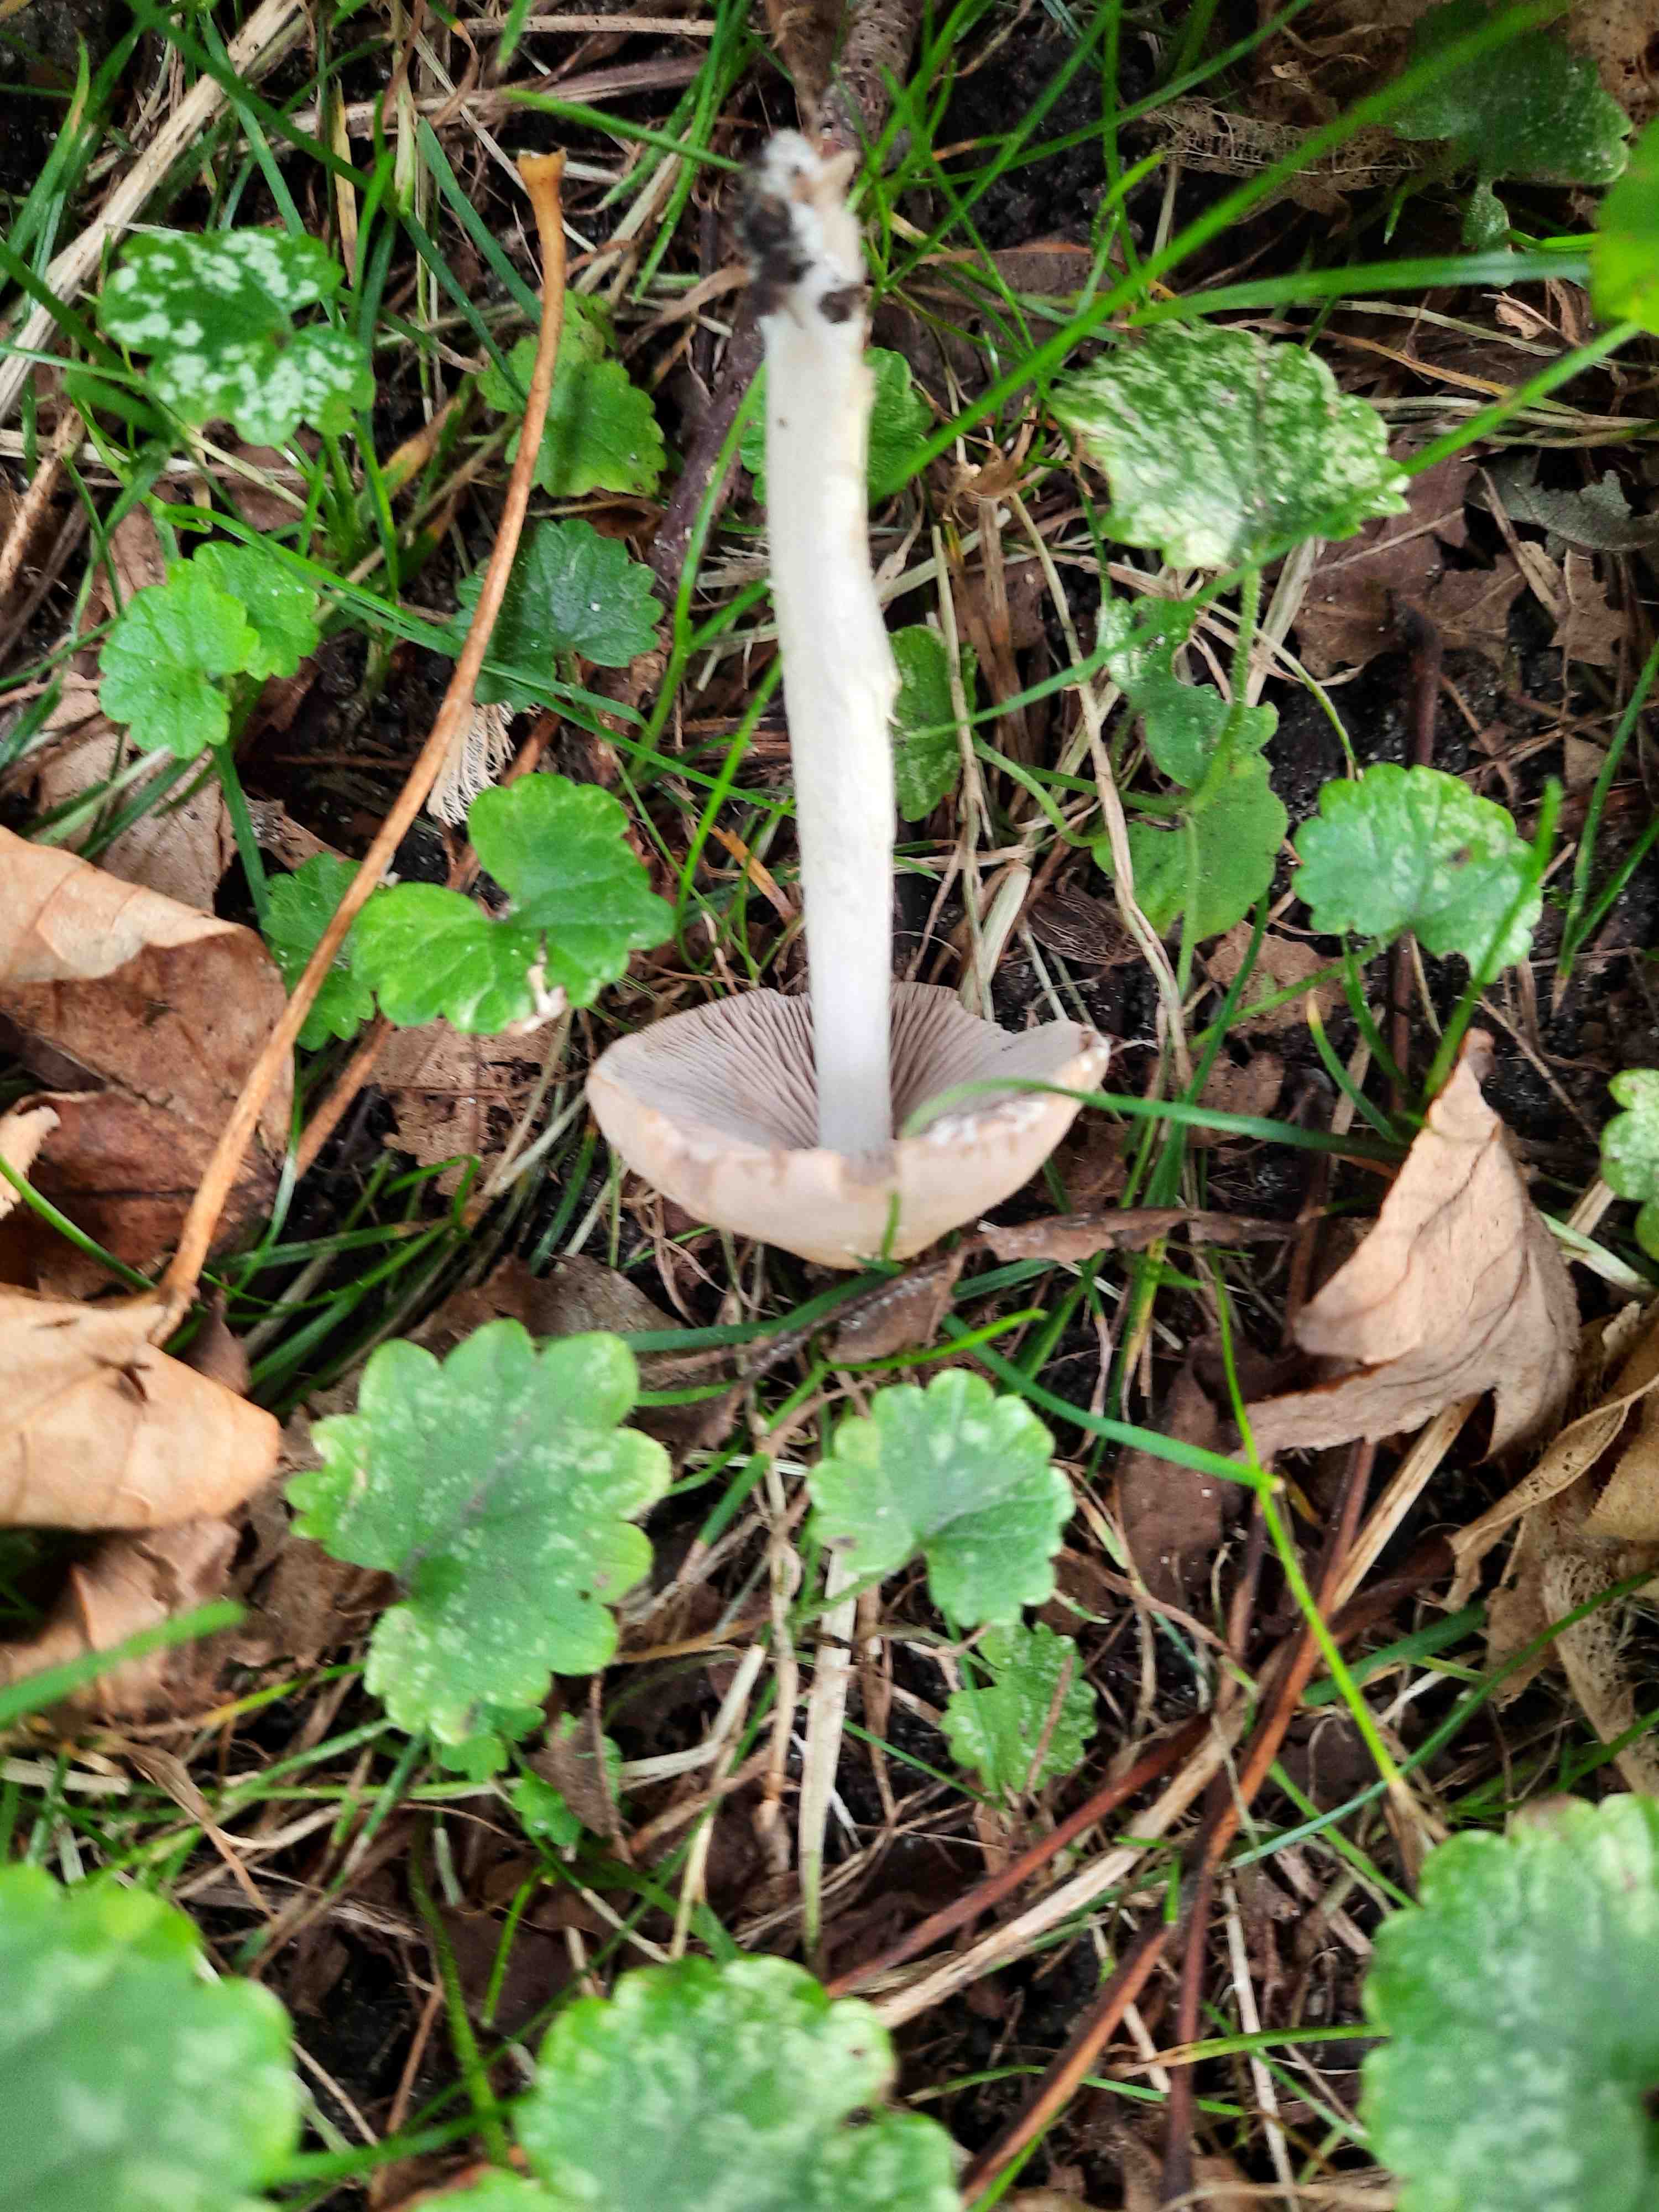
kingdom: Fungi
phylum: Basidiomycota
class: Agaricomycetes
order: Agaricales
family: Psathyrellaceae
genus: Candolleomyces
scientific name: Candolleomyces candolleanus
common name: Candolles mørkhat
